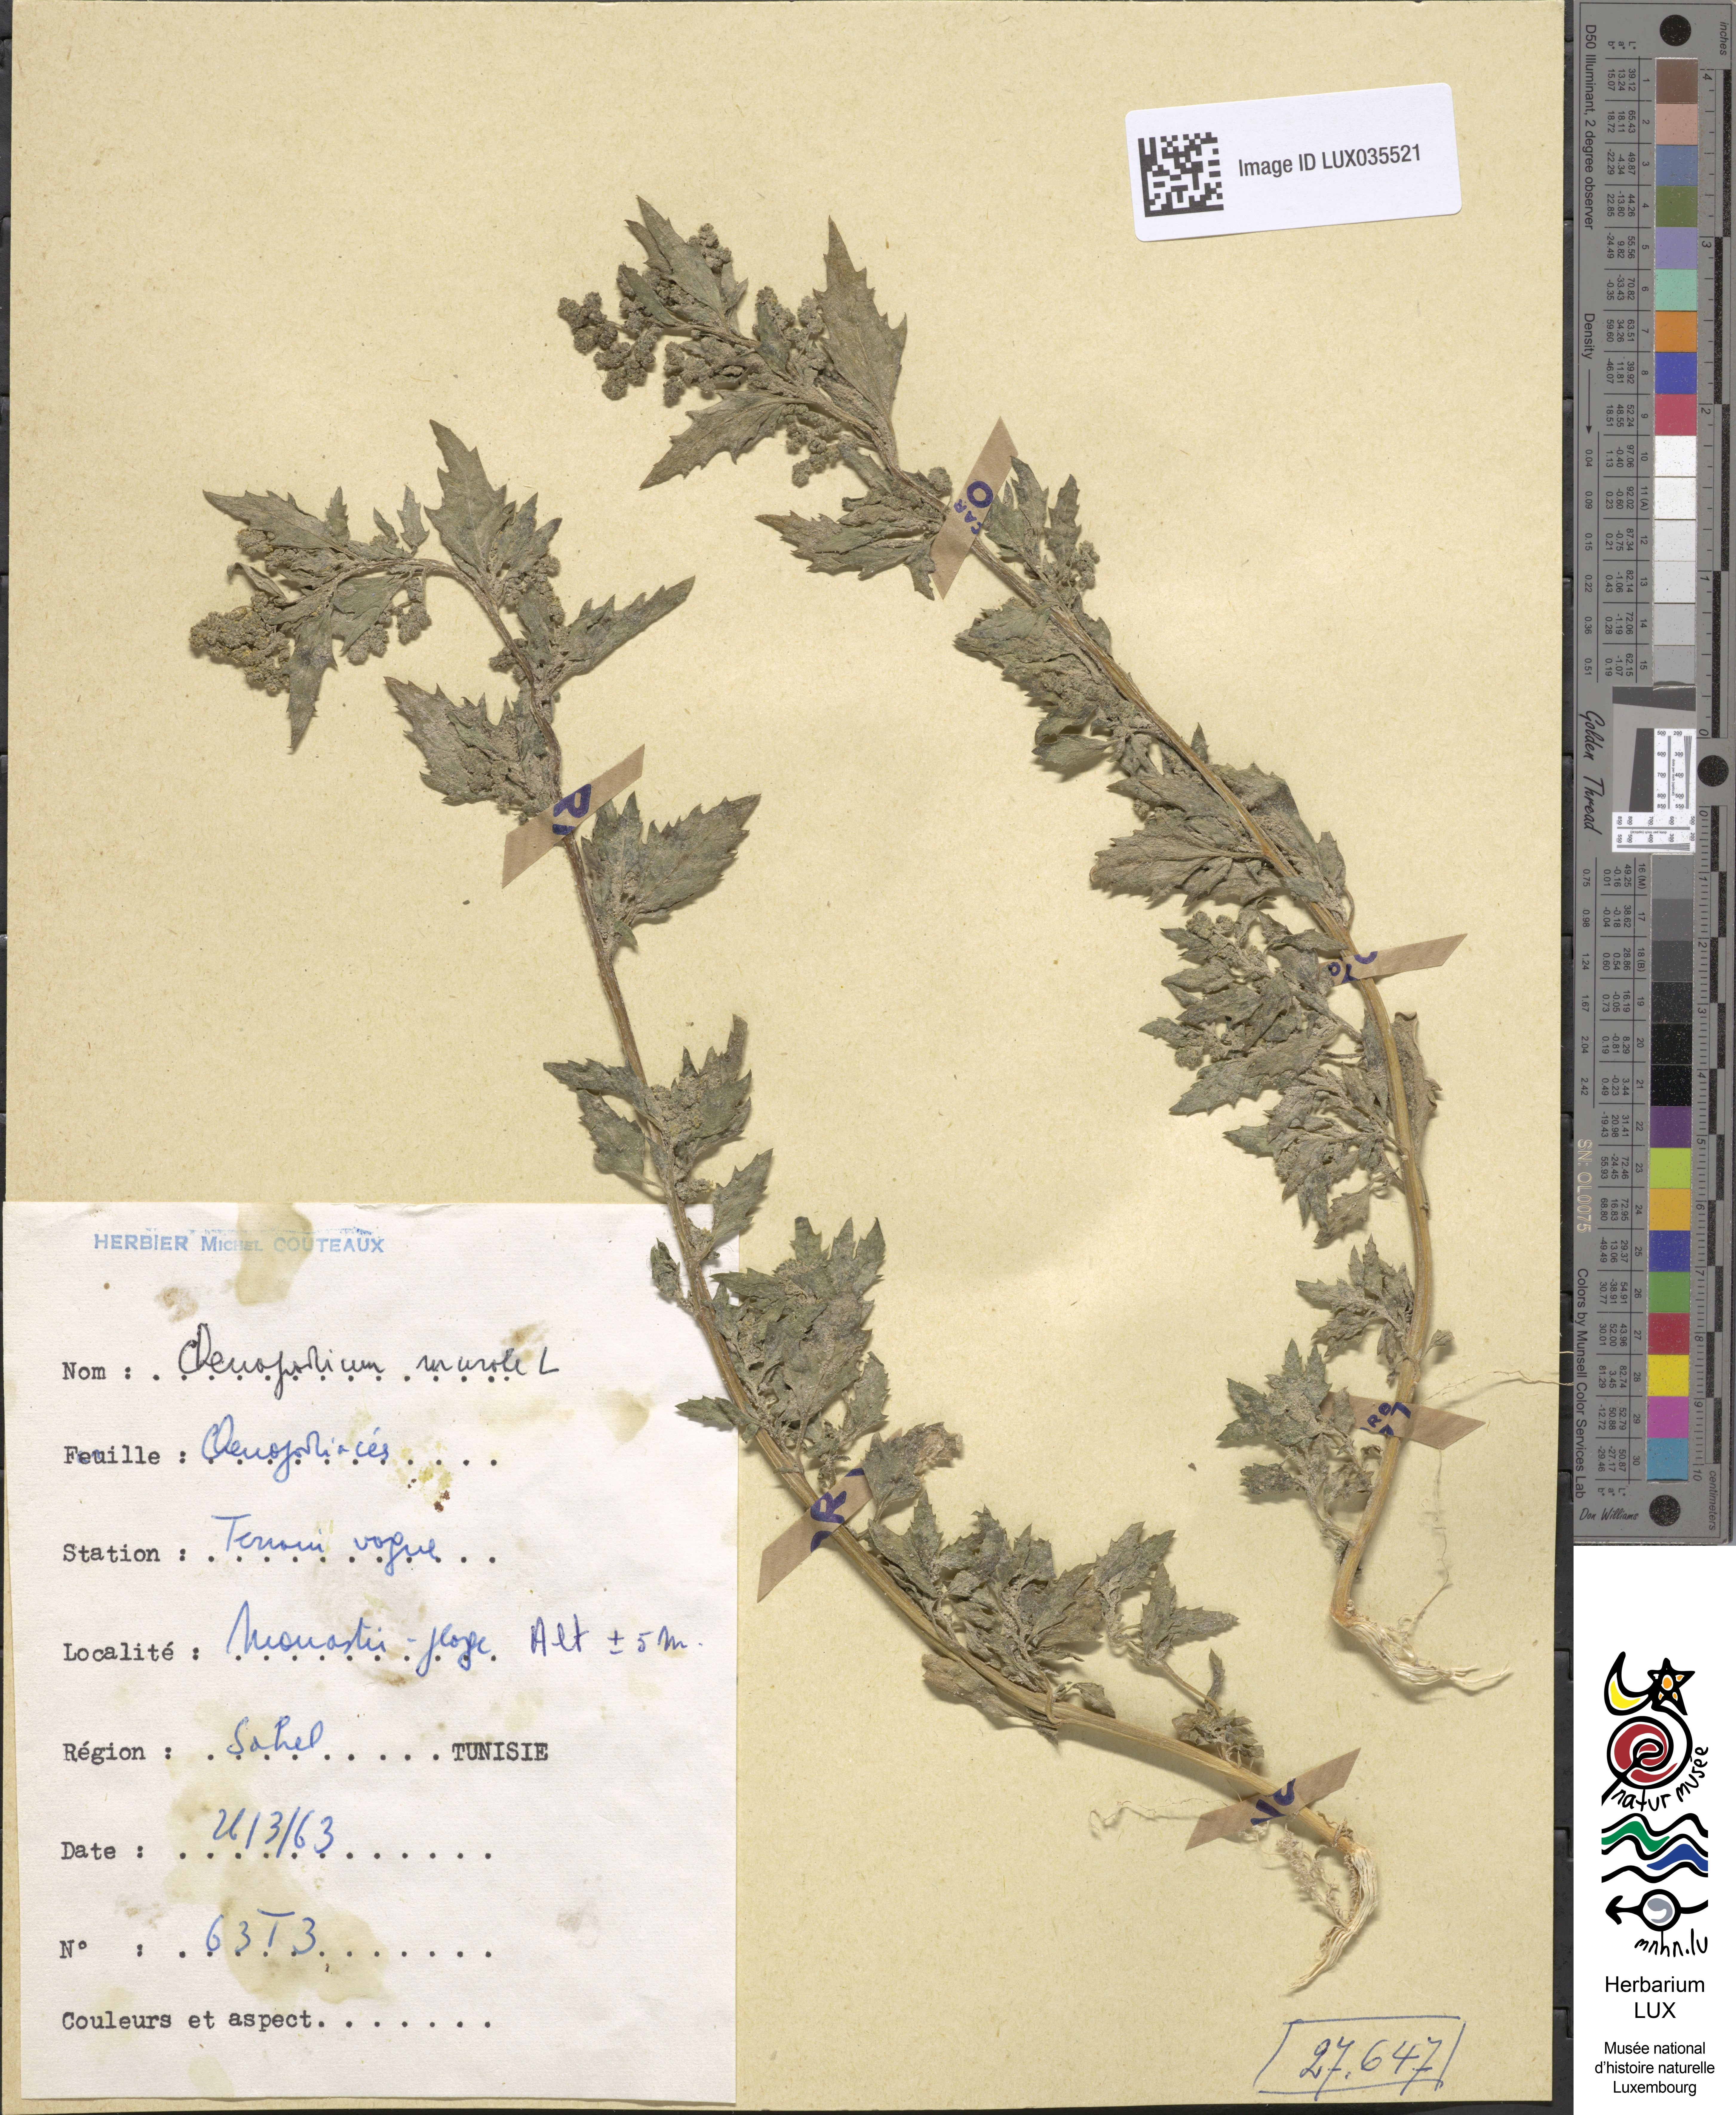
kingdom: Plantae
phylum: Tracheophyta
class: Magnoliopsida
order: Caryophyllales
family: Amaranthaceae
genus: Chenopodiastrum
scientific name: Chenopodiastrum murale
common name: Sowbane
